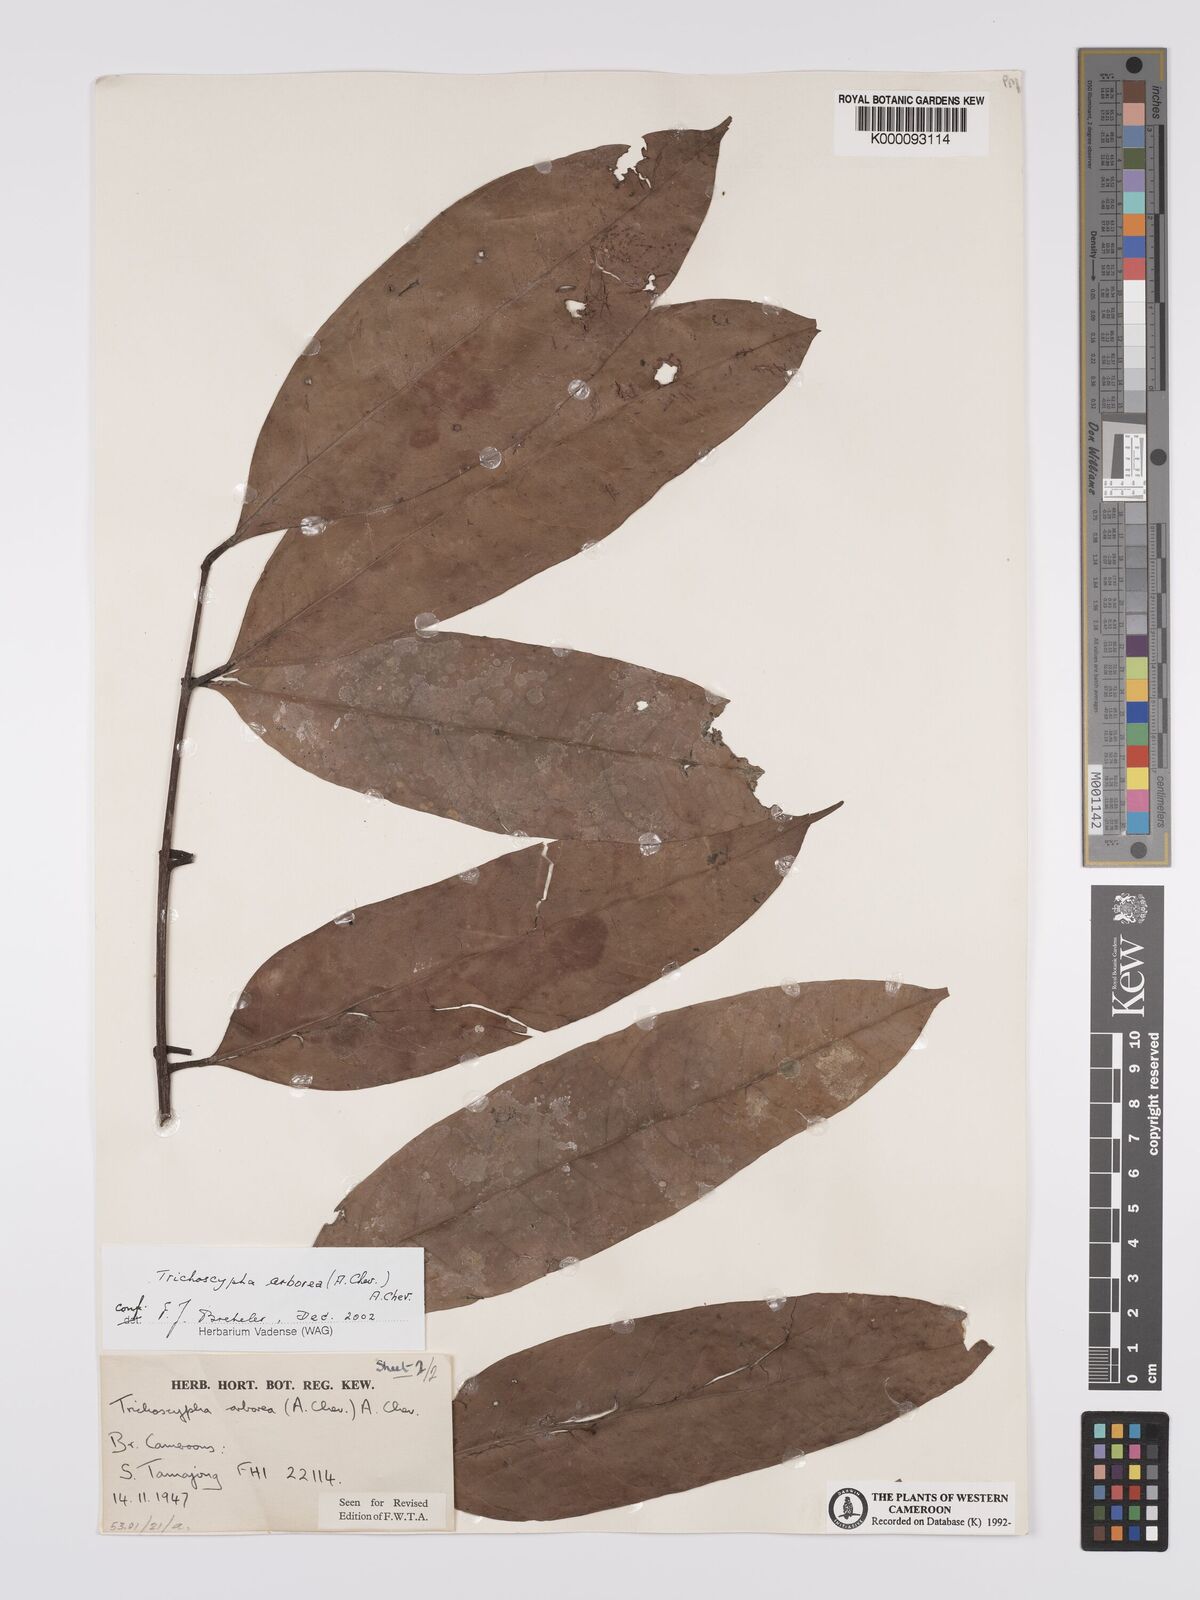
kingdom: Plantae
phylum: Tracheophyta
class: Magnoliopsida
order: Sapindales
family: Anacardiaceae
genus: Trichoscypha
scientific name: Trichoscypha arborea
